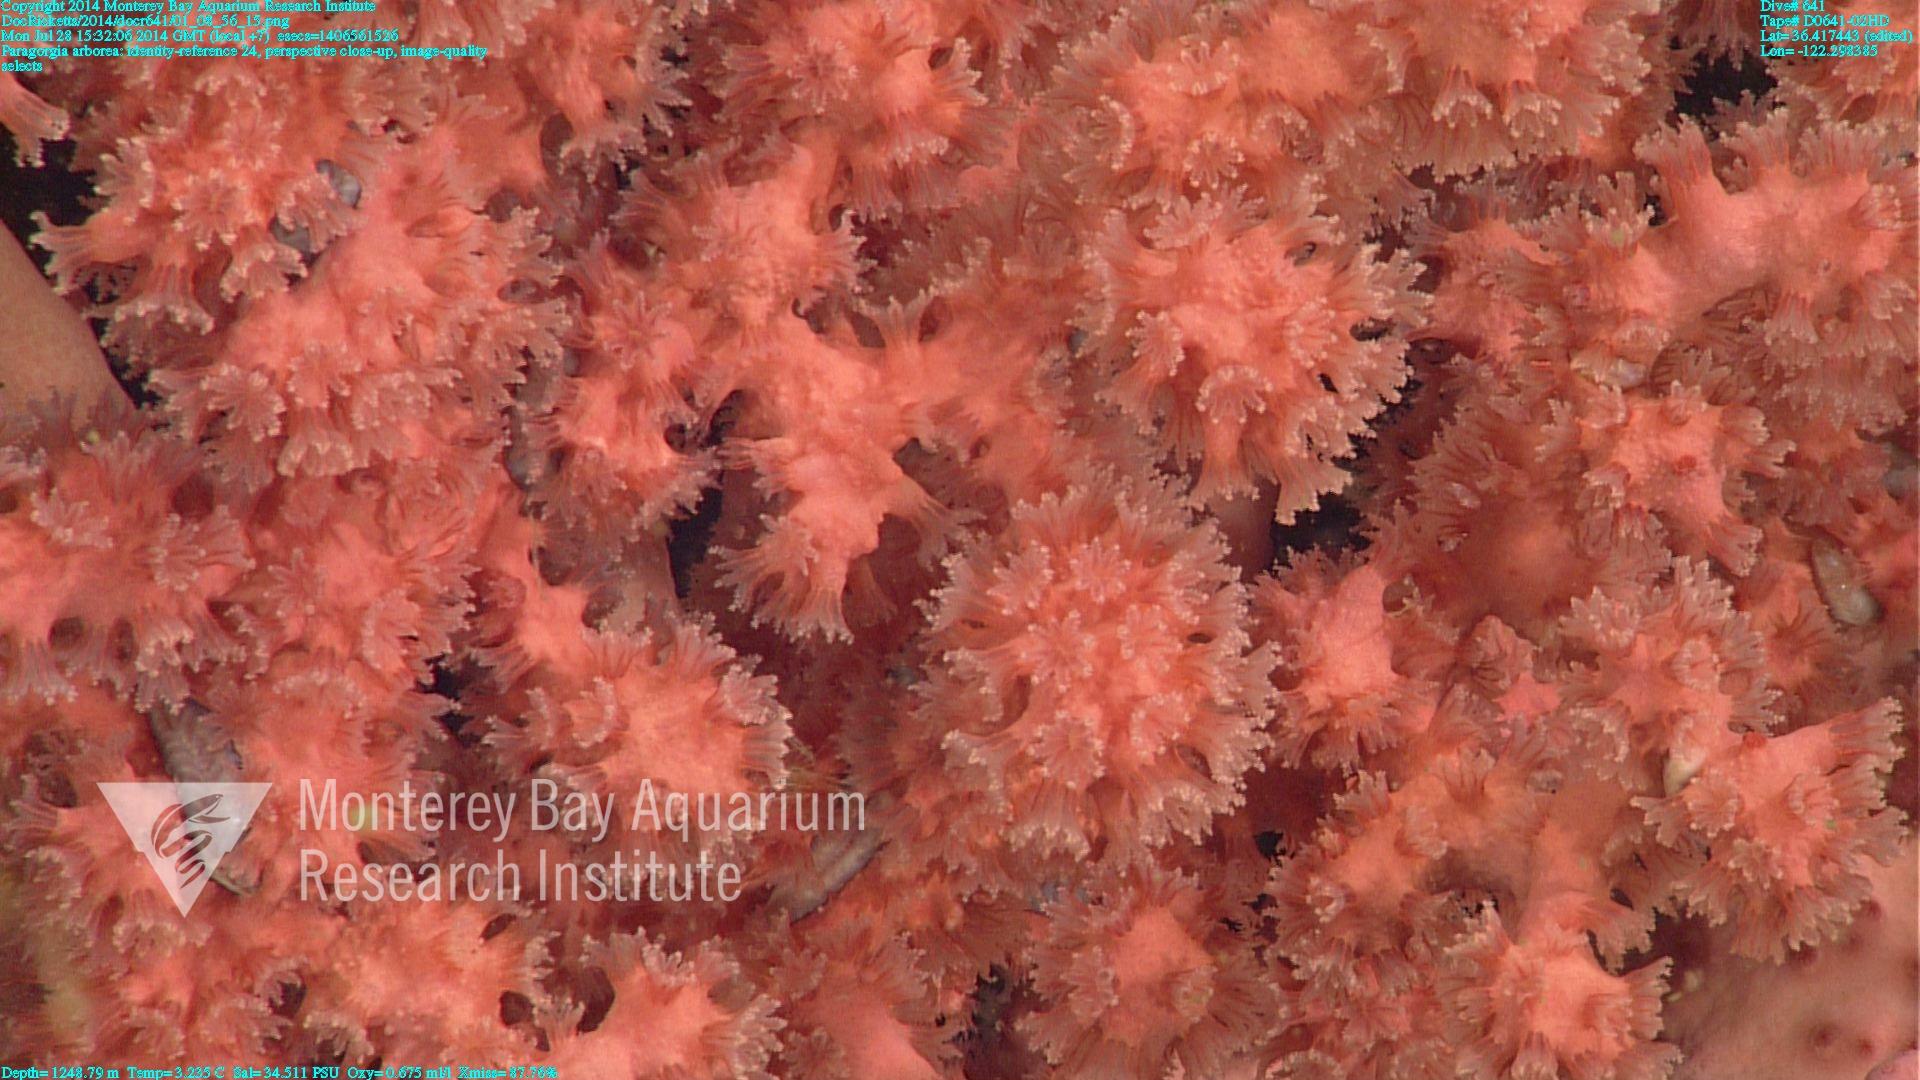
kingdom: Animalia
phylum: Cnidaria
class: Anthozoa
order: Scleralcyonacea
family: Coralliidae
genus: Paragorgia
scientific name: Paragorgia arborea
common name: Bubble gum coral
